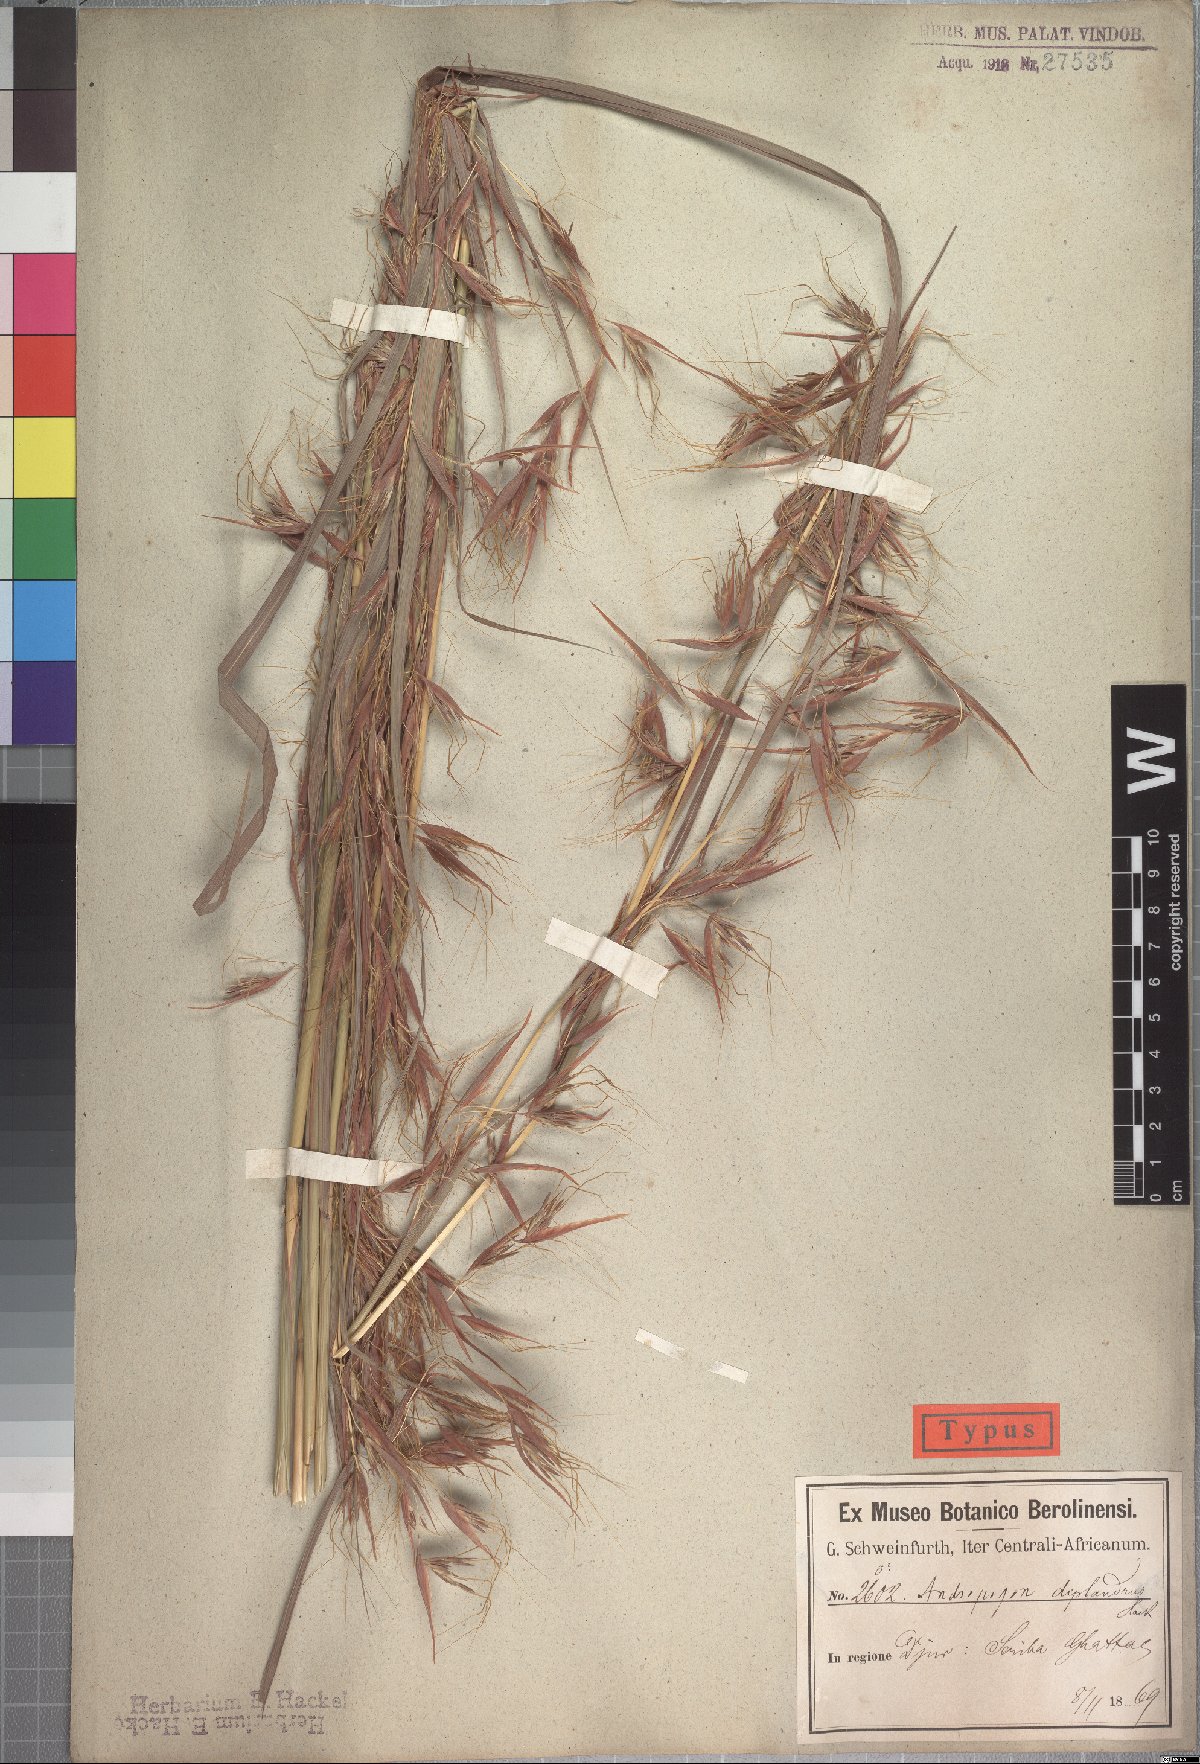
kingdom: Plantae
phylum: Tracheophyta
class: Liliopsida
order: Poales
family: Poaceae
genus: Hyparrhenia
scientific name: Hyparrhenia diplandra
